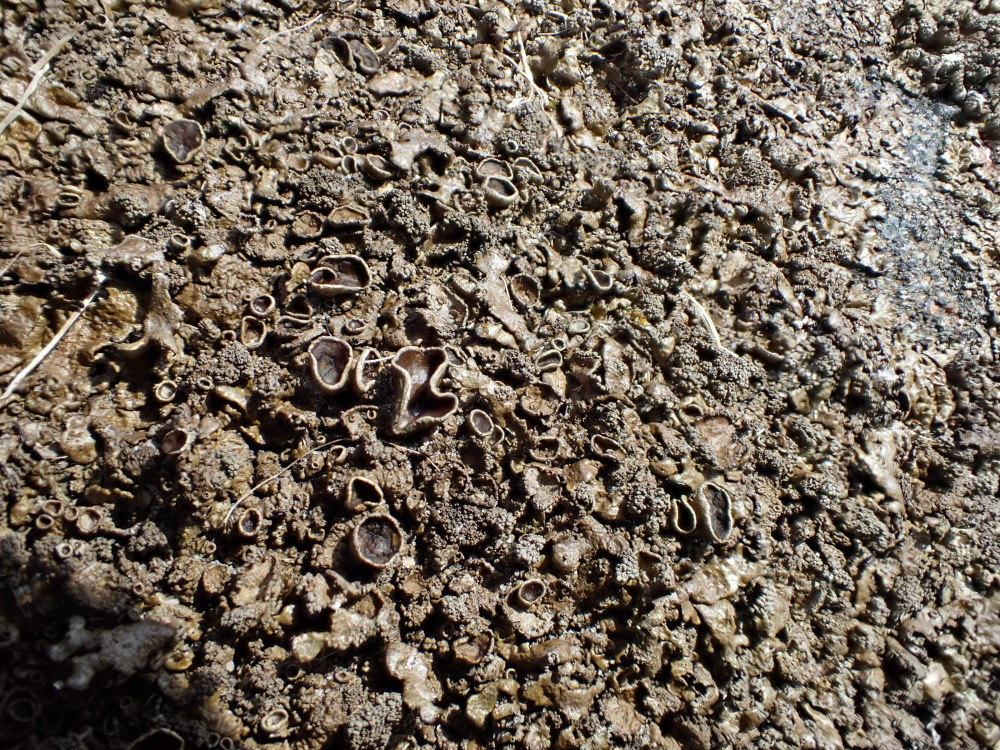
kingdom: Fungi
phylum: Ascomycota
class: Lecanoromycetes
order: Lecanorales
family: Parmeliaceae
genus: Xanthoparmelia
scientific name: Xanthoparmelia loxodes
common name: knudret skållav
